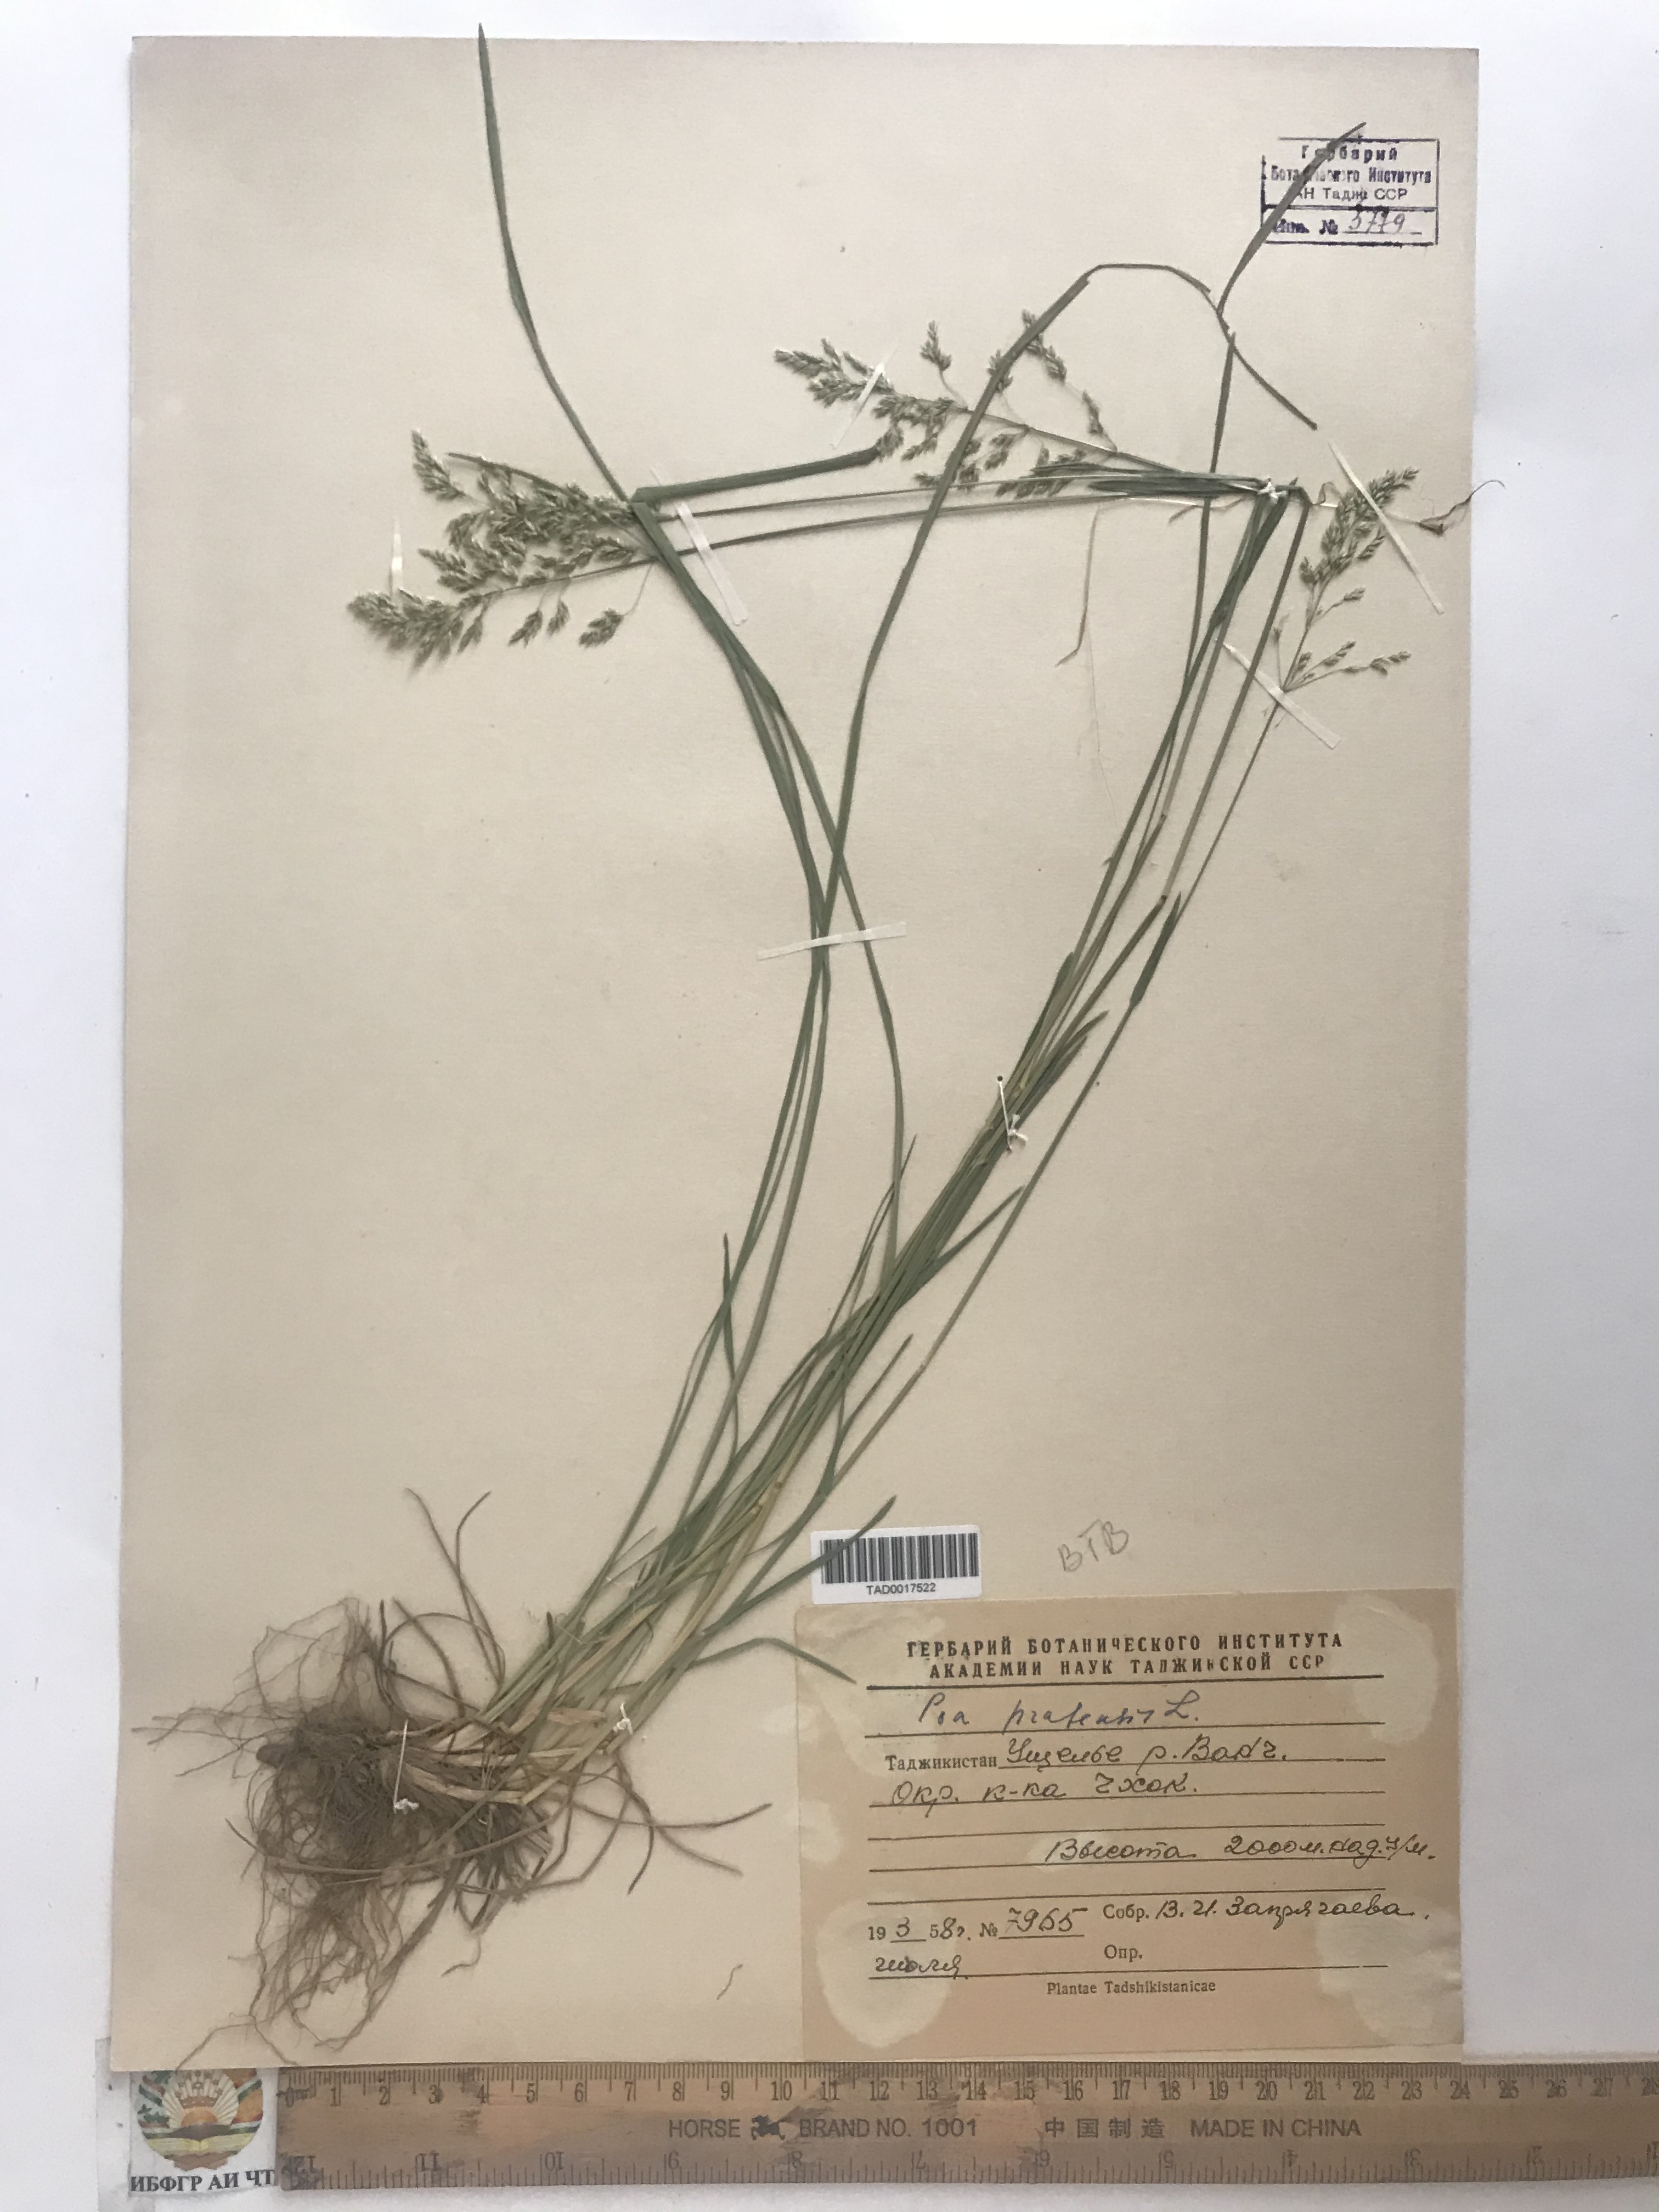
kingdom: Plantae
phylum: Tracheophyta
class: Liliopsida
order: Poales
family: Poaceae
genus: Poa
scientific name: Poa pratensis
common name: Kentucky bluegrass
